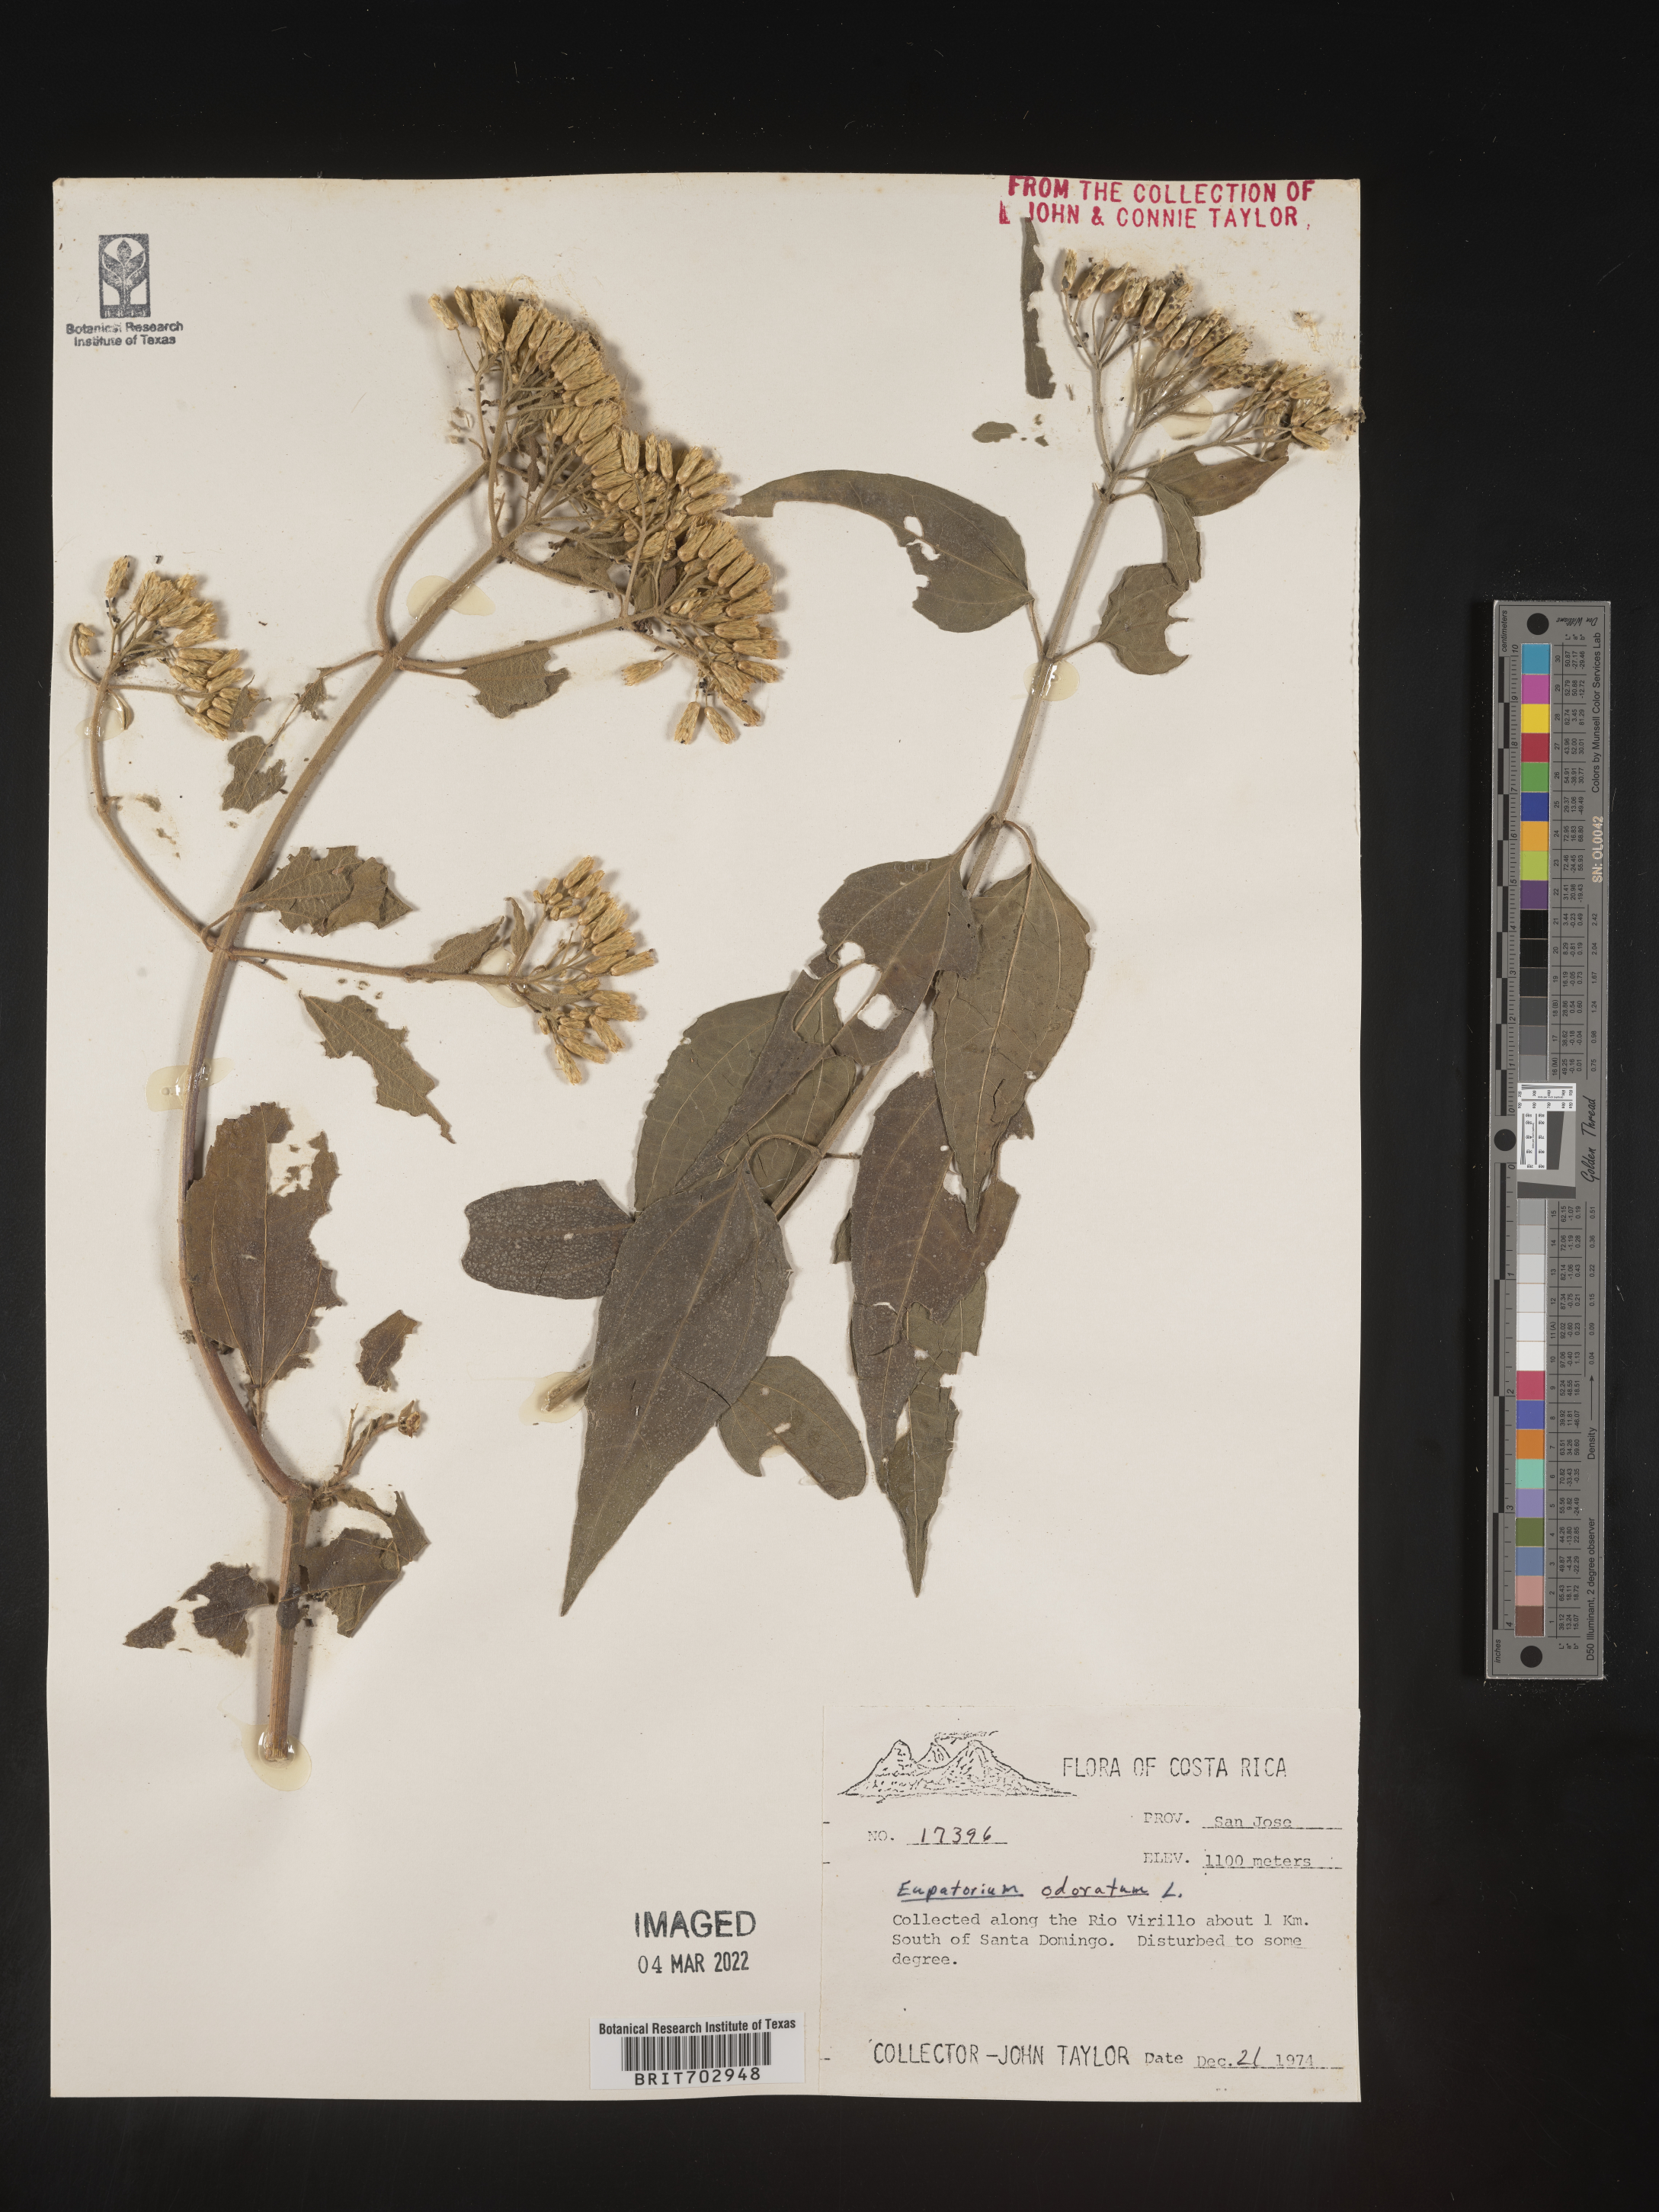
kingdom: Plantae
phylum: Tracheophyta
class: Magnoliopsida
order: Asterales
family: Asteraceae
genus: Eupatorium
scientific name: Eupatorium
